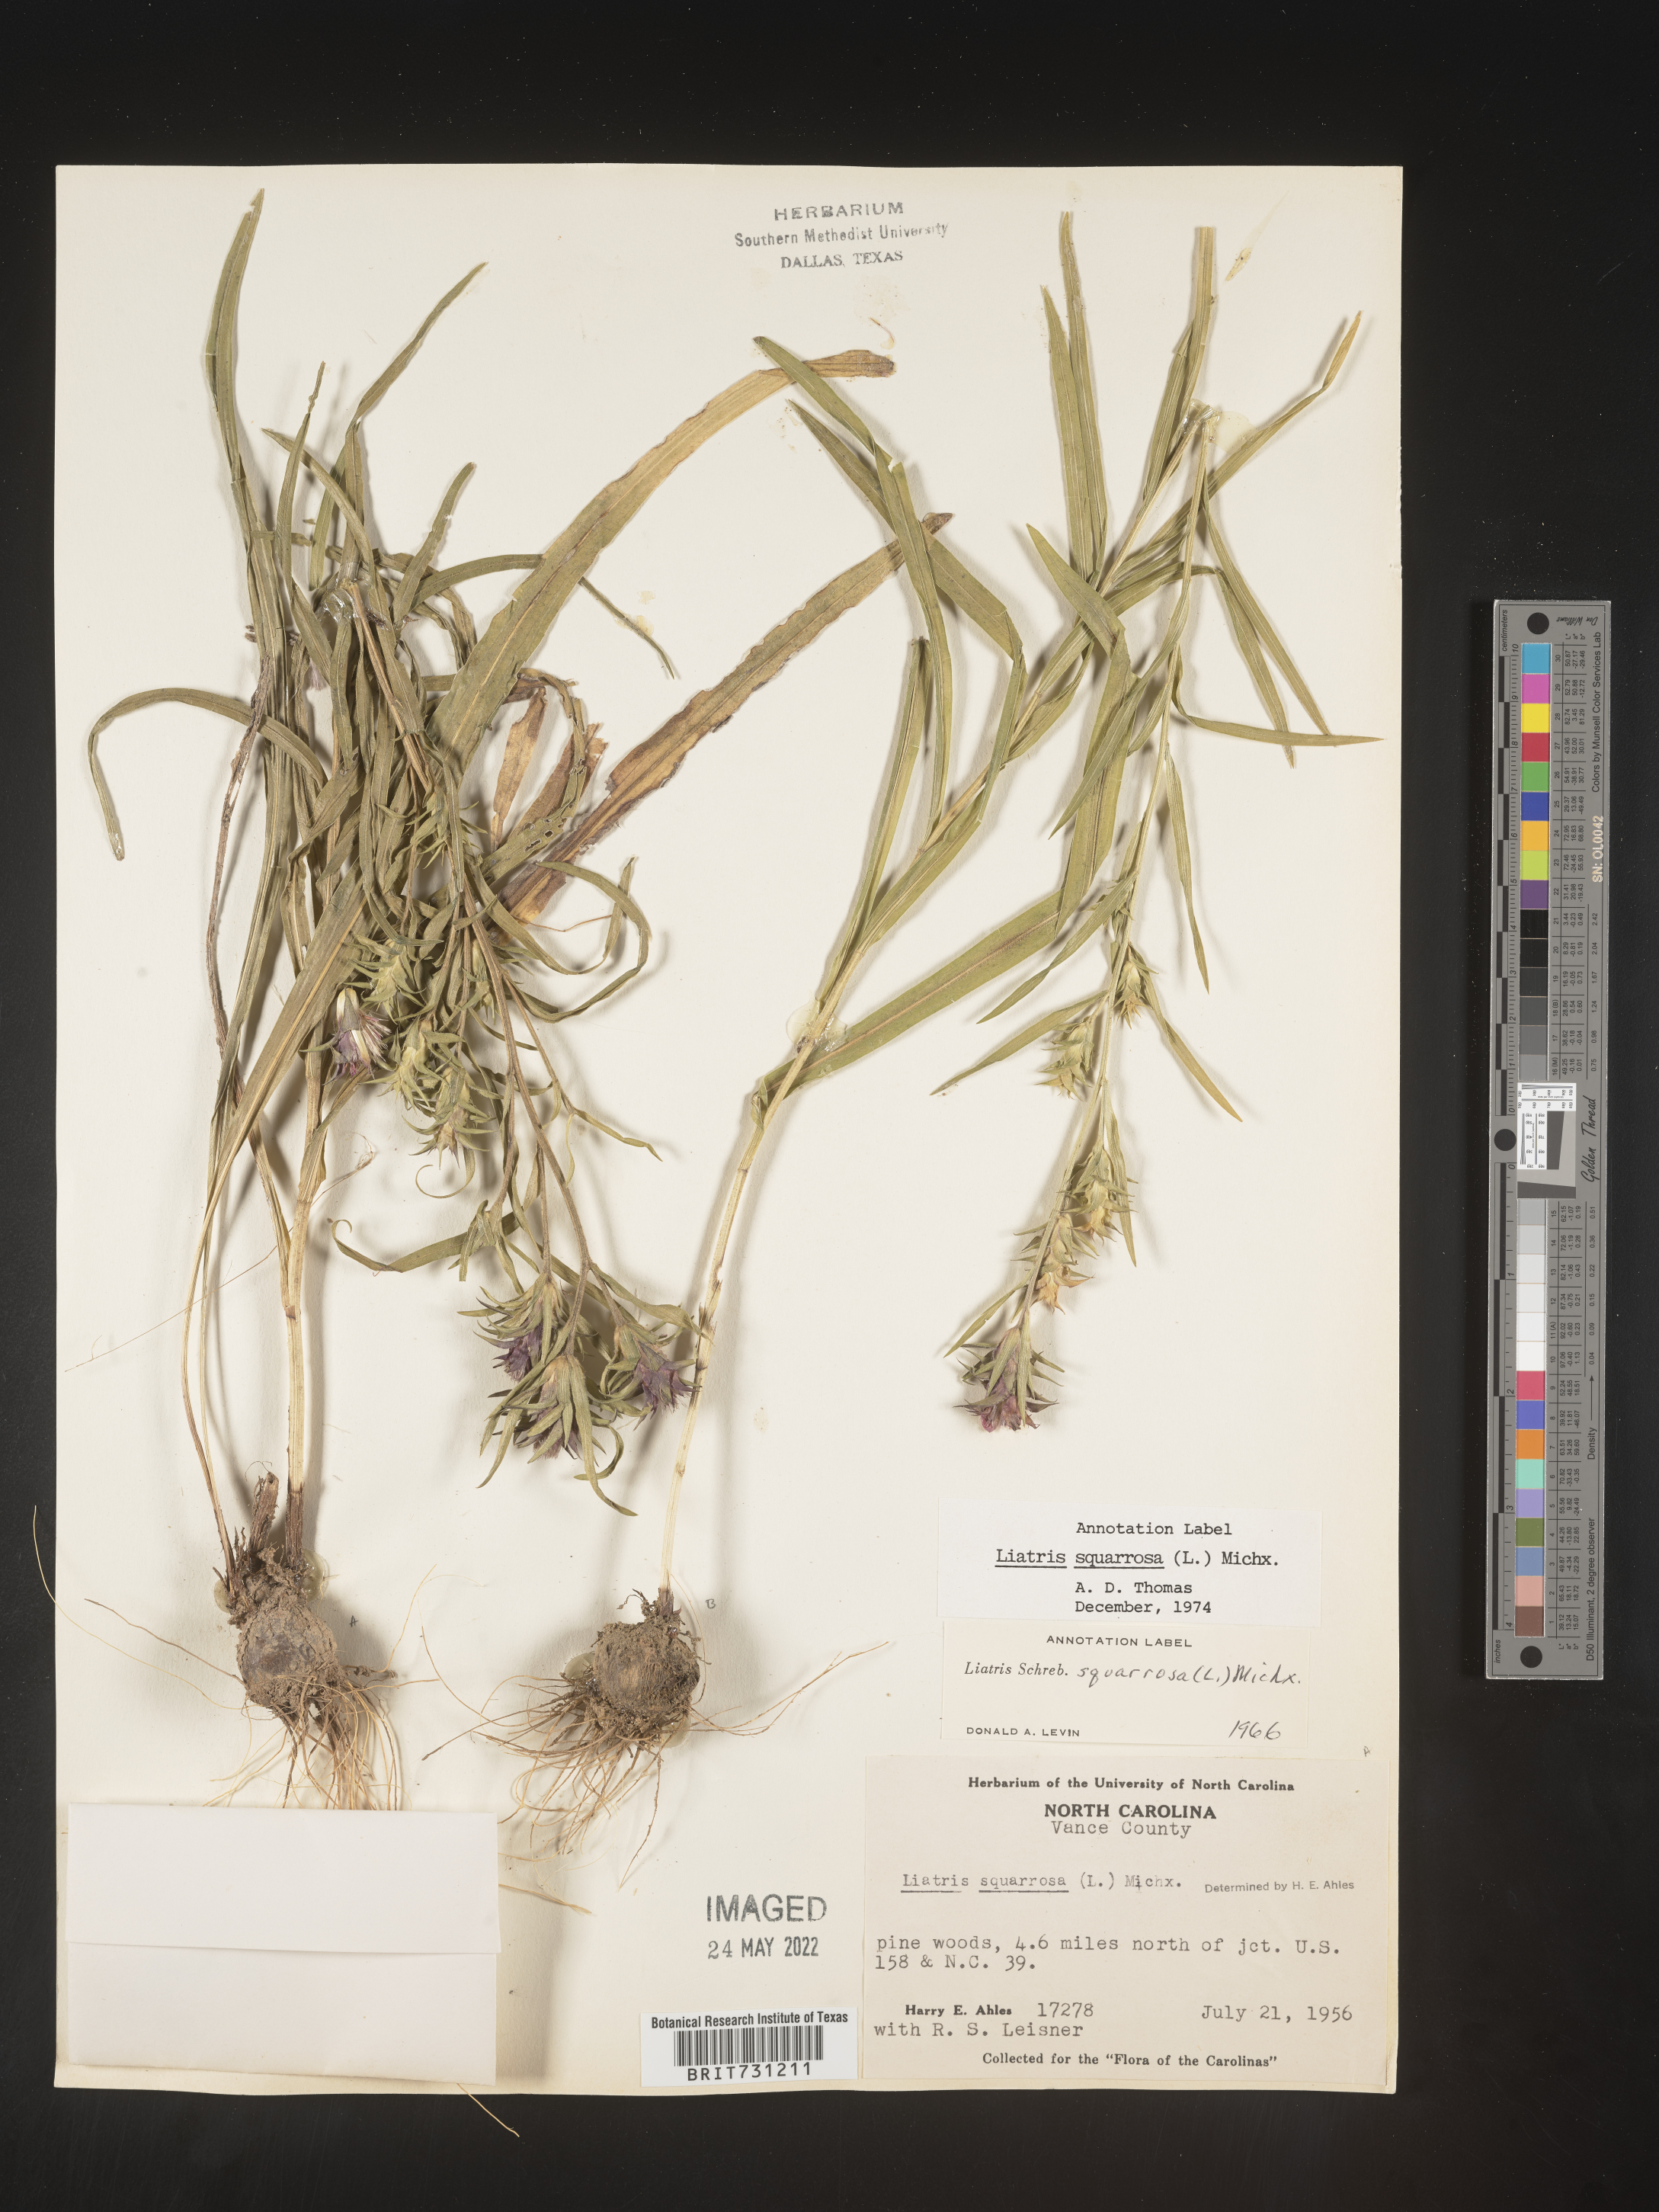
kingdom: Plantae
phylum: Tracheophyta
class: Magnoliopsida
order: Asterales
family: Asteraceae
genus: Liatris
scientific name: Liatris squarrosa
